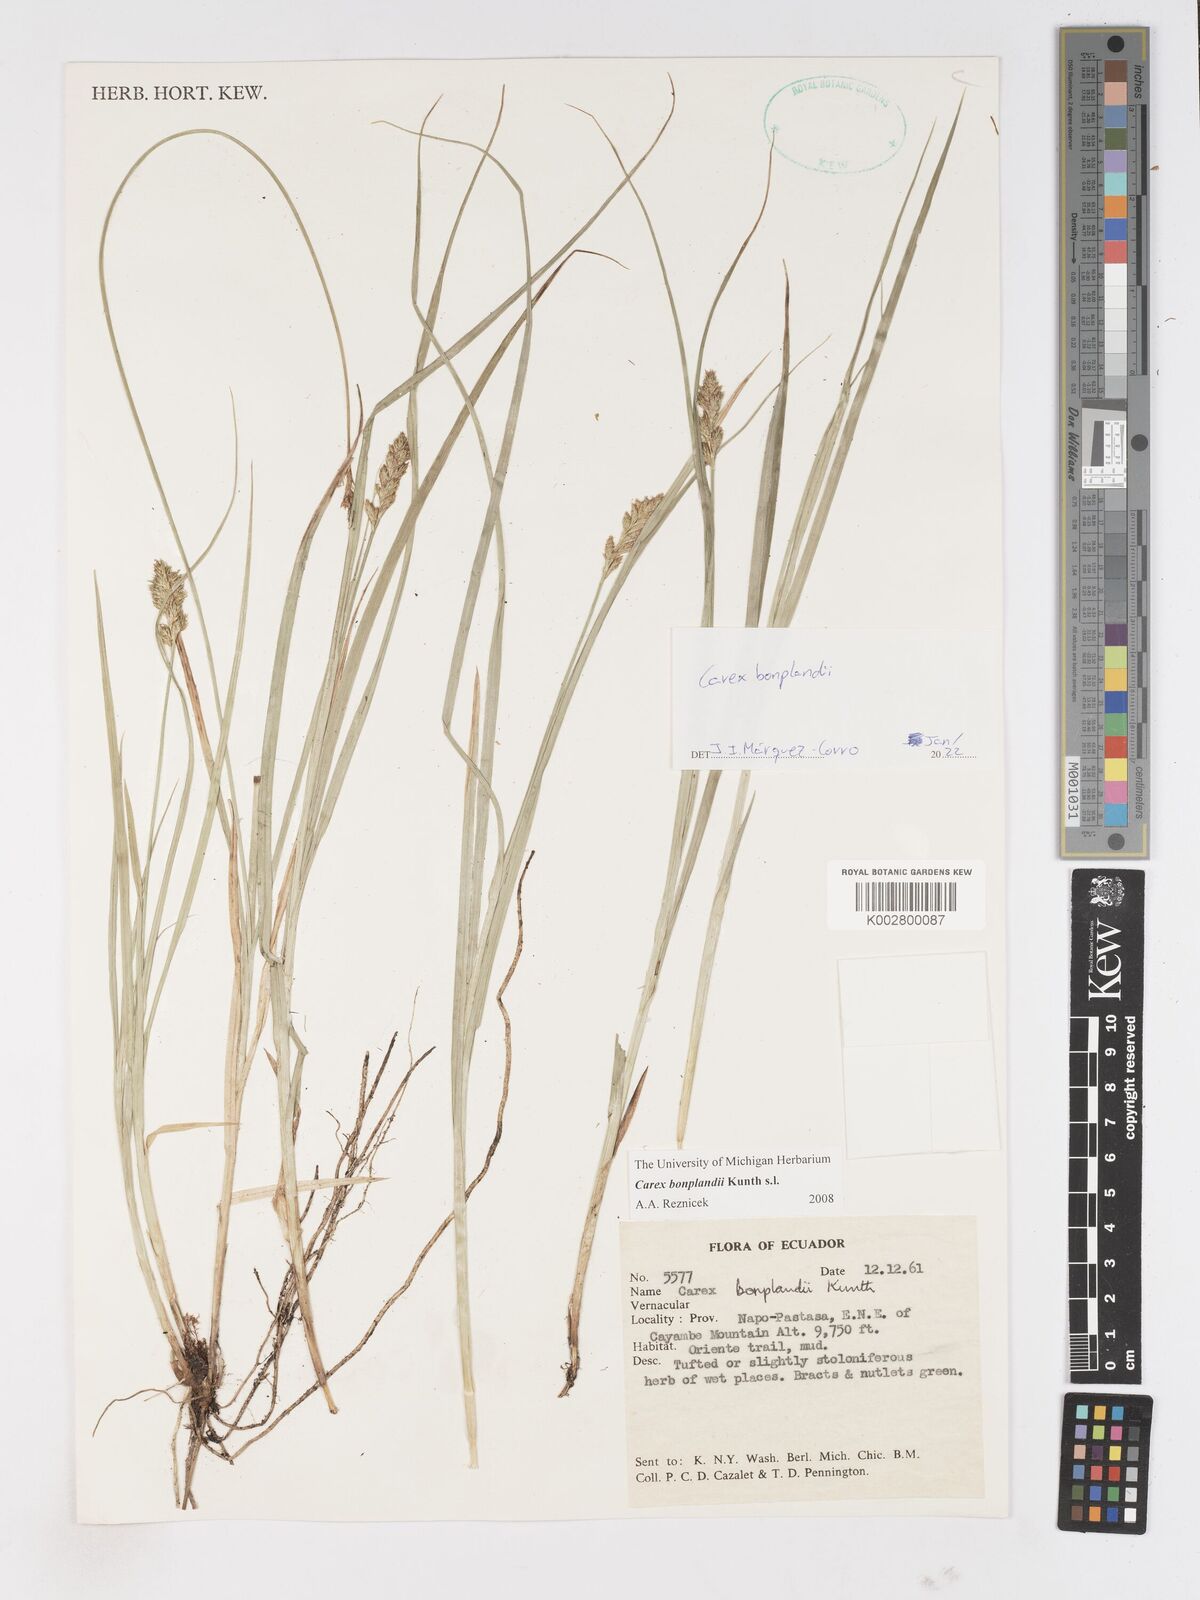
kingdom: Plantae
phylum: Tracheophyta
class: Liliopsida
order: Poales
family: Cyperaceae
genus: Carex
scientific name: Carex bonplandii
